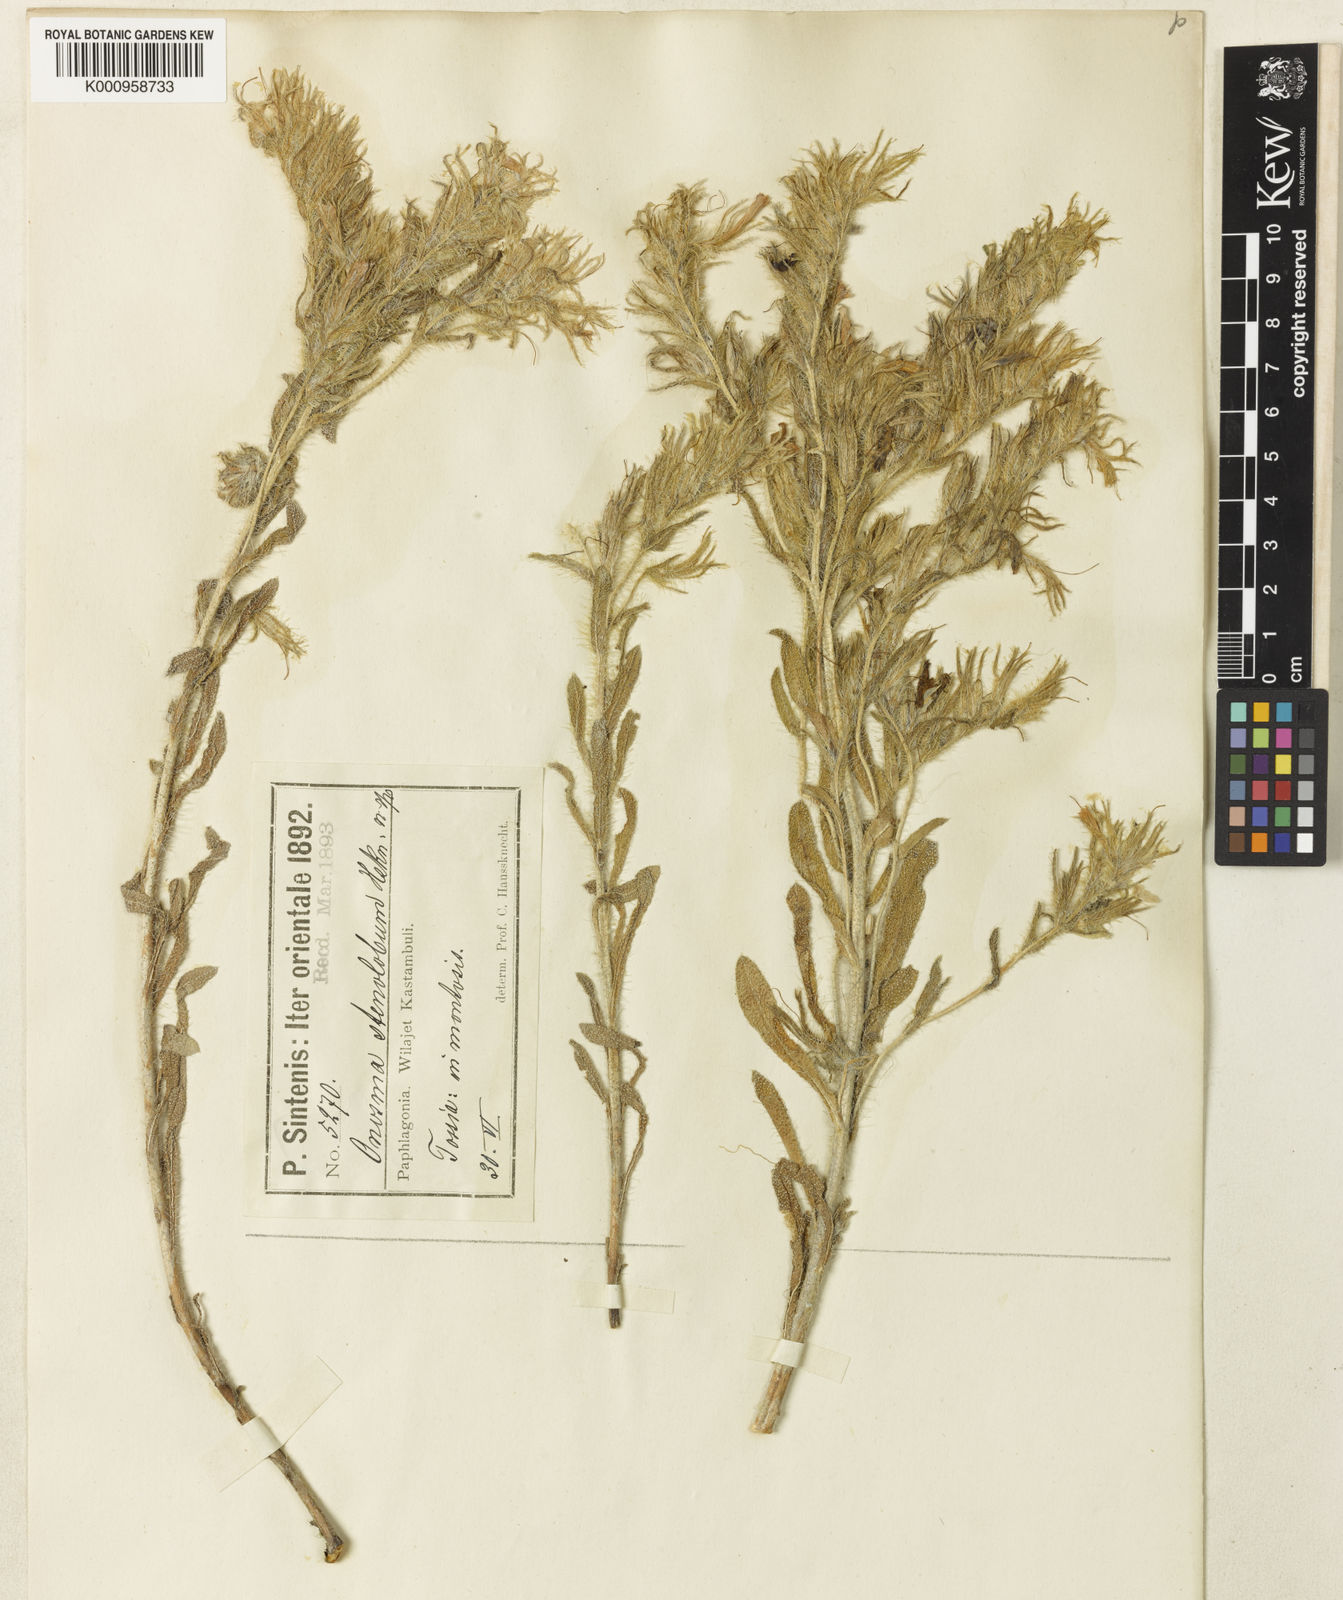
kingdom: Plantae
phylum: Tracheophyta
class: Magnoliopsida
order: Boraginales
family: Boraginaceae
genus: Onosma
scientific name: Onosma stenoloba
